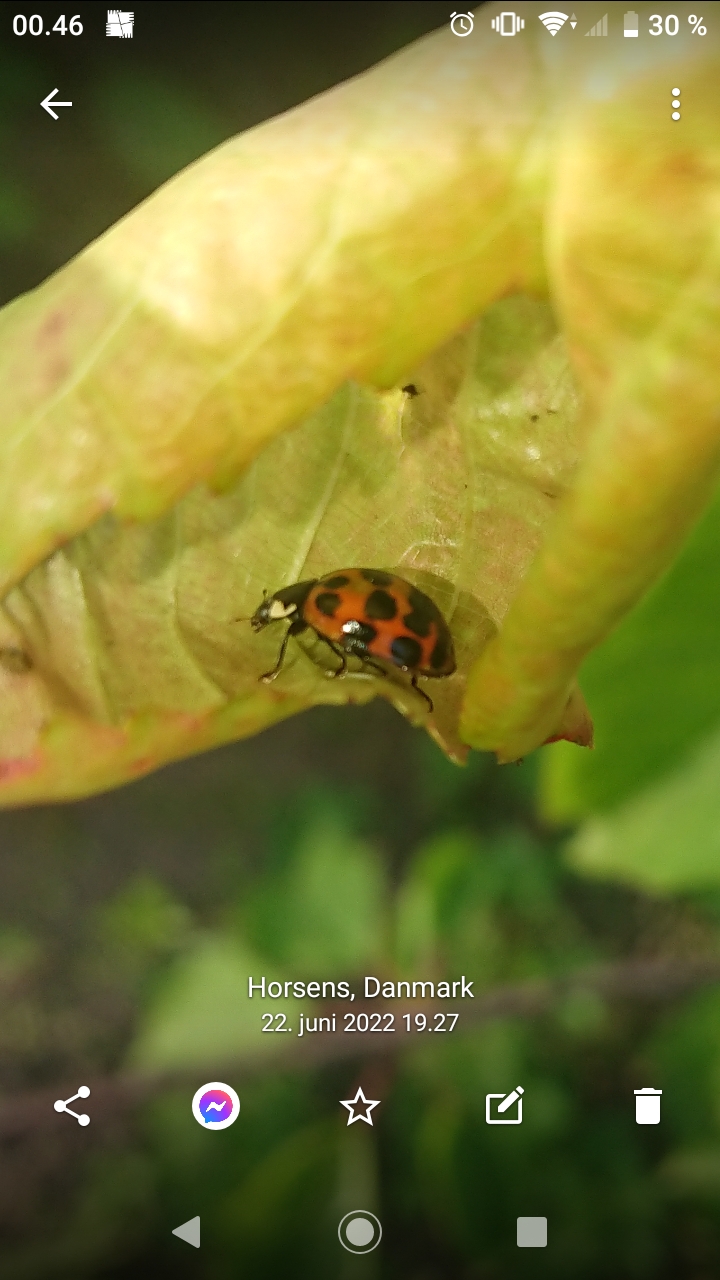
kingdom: Animalia
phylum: Arthropoda
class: Insecta
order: Coleoptera
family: Coccinellidae
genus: Harmonia
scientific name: Harmonia axyridis
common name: Harlekinmariehøne
